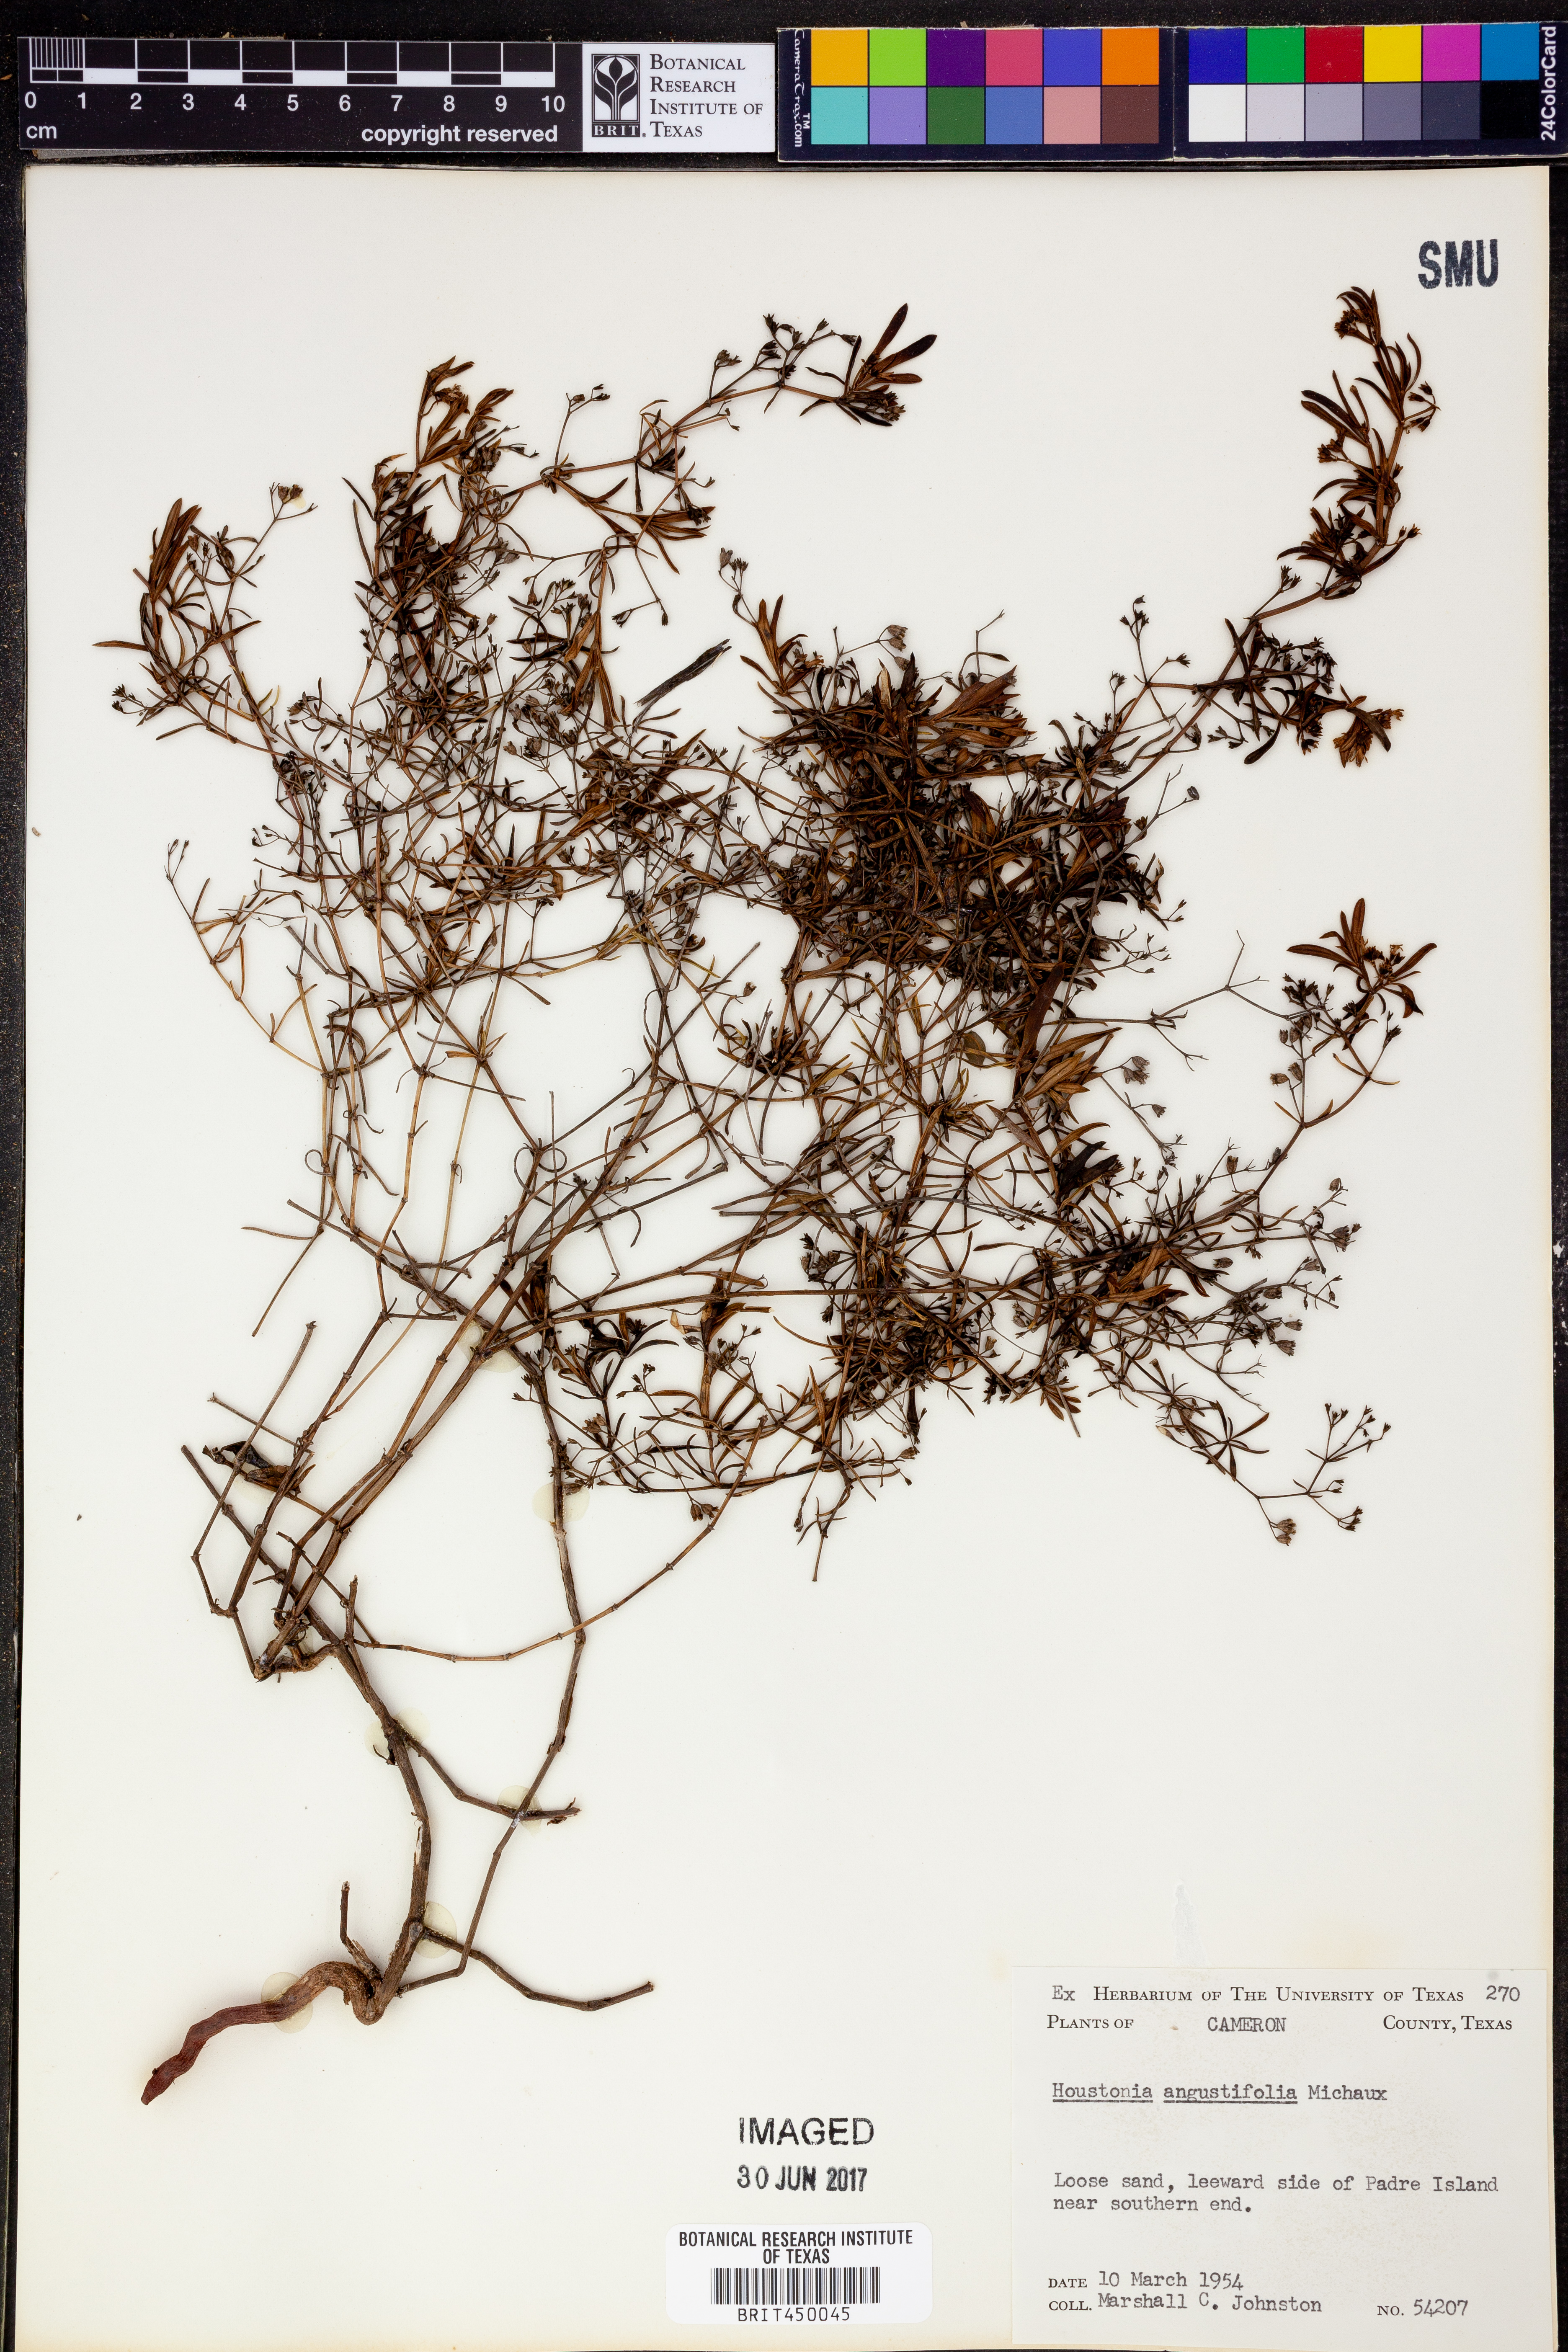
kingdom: Plantae
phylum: Tracheophyta
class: Magnoliopsida
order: Gentianales
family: Rubiaceae
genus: Stenaria
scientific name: Stenaria nigricans
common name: Diamondflowers
